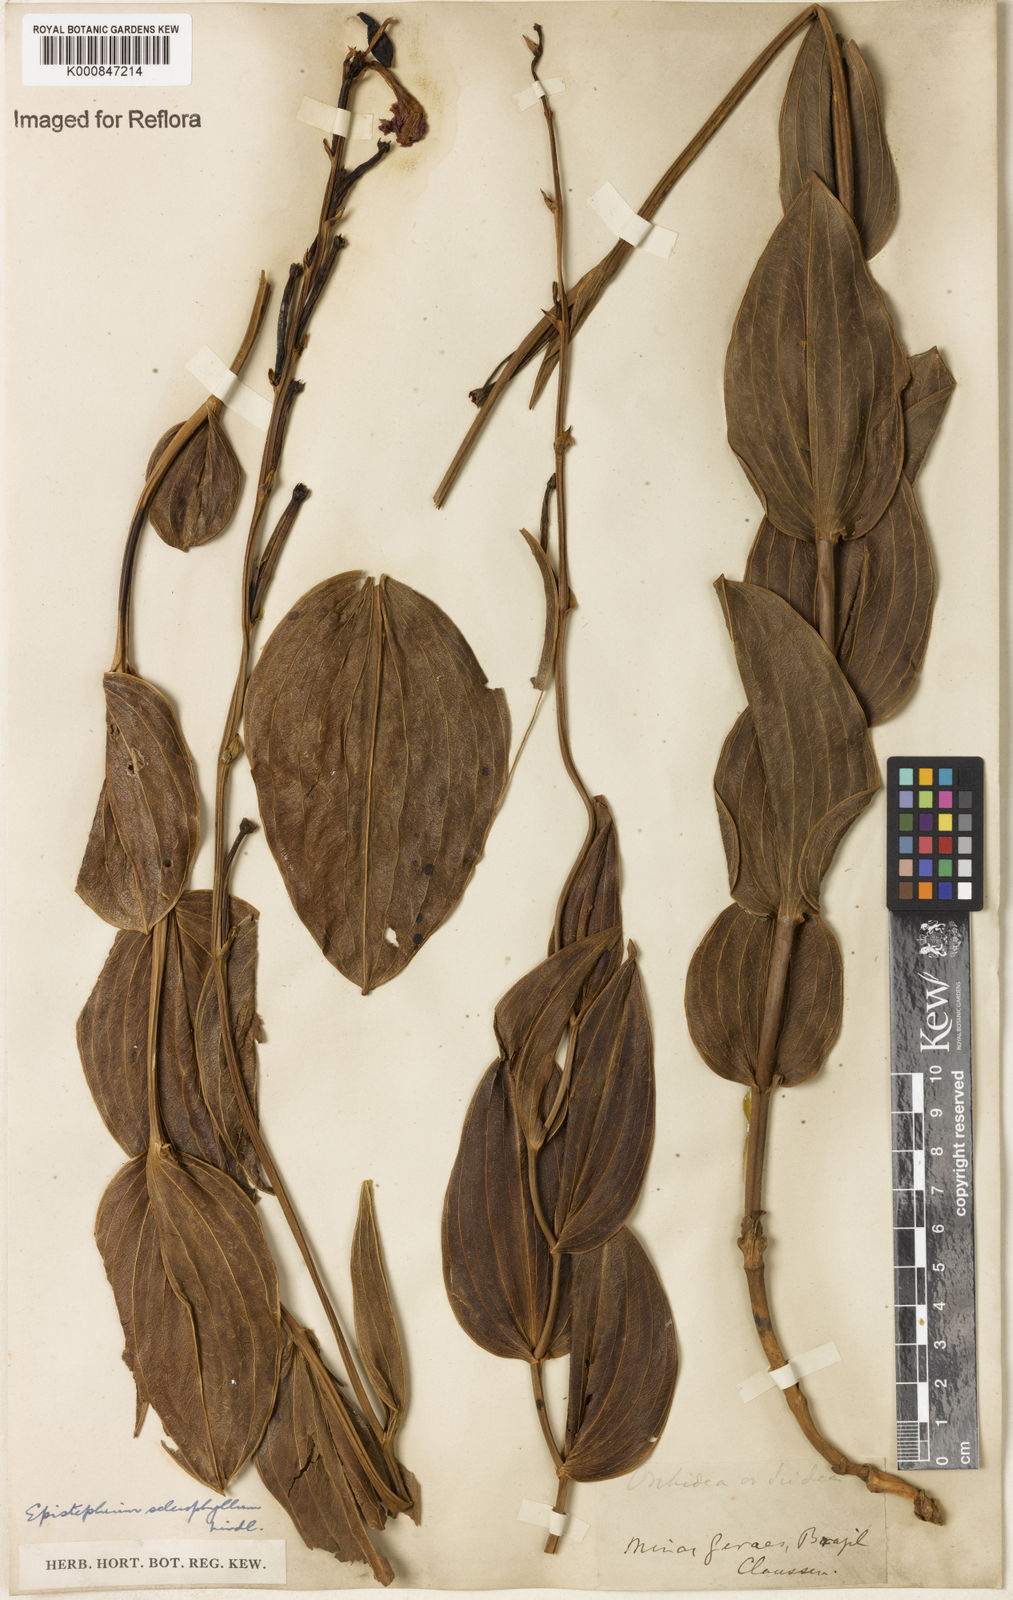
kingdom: Plantae
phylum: Tracheophyta
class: Liliopsida
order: Asparagales
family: Orchidaceae
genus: Epistephium
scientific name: Epistephium sclerophyllum
